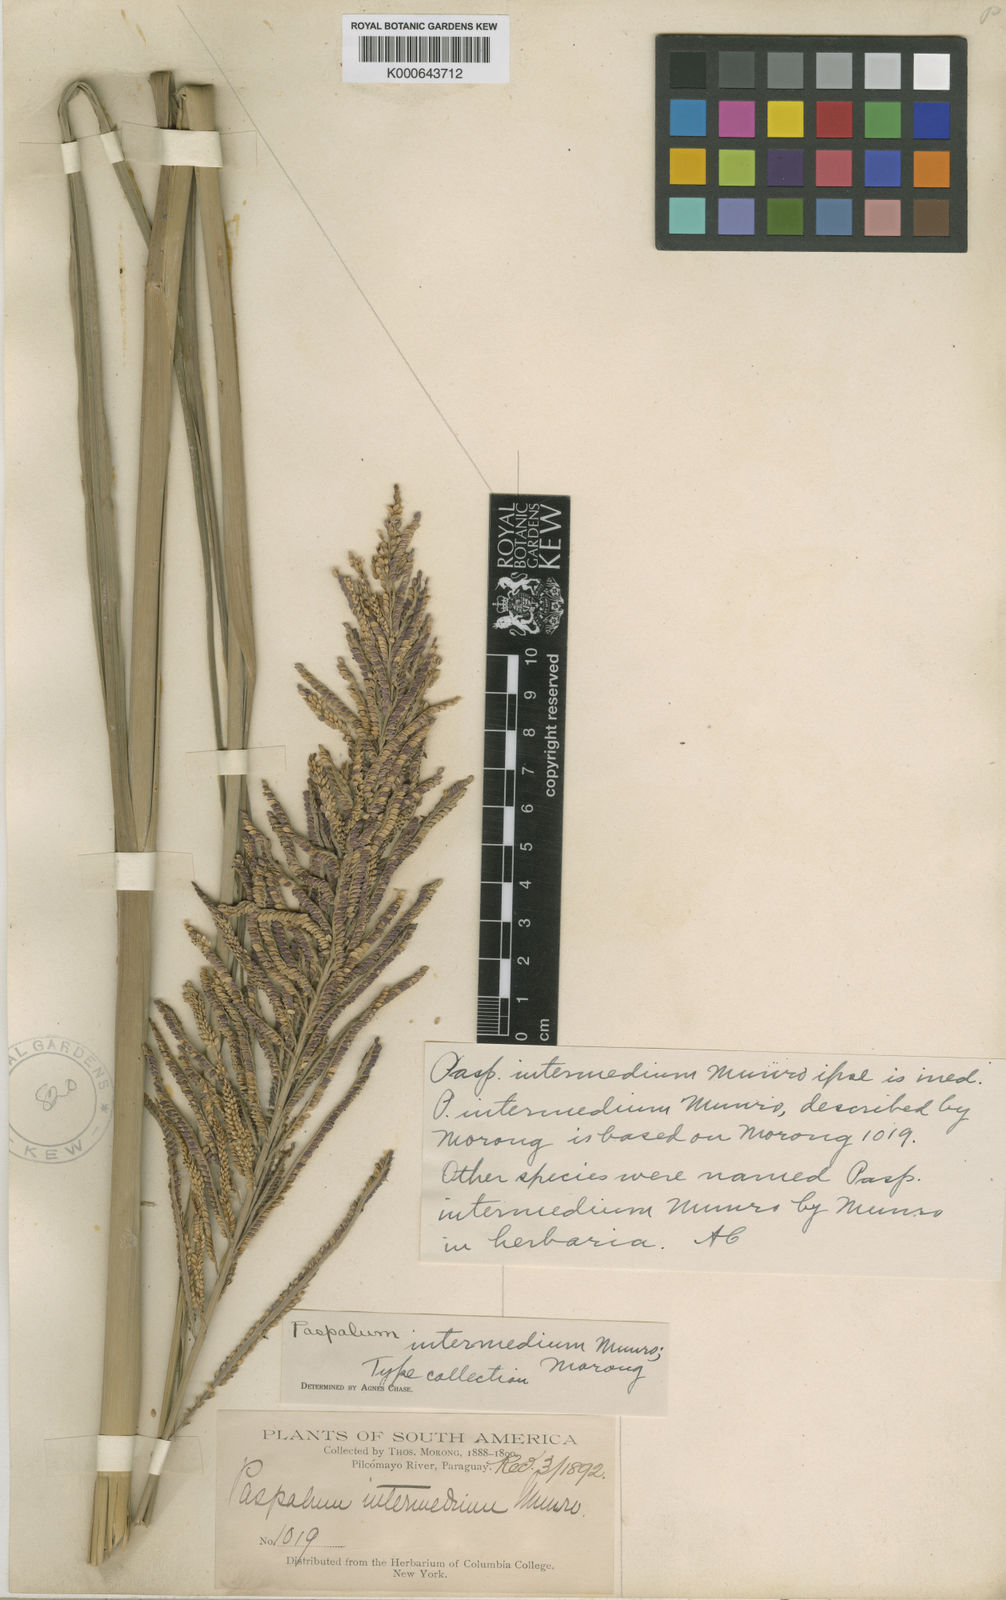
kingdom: Plantae
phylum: Tracheophyta
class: Liliopsida
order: Poales
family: Poaceae
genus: Paspalum
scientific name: Paspalum intermedium
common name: Intermediate paspalum
